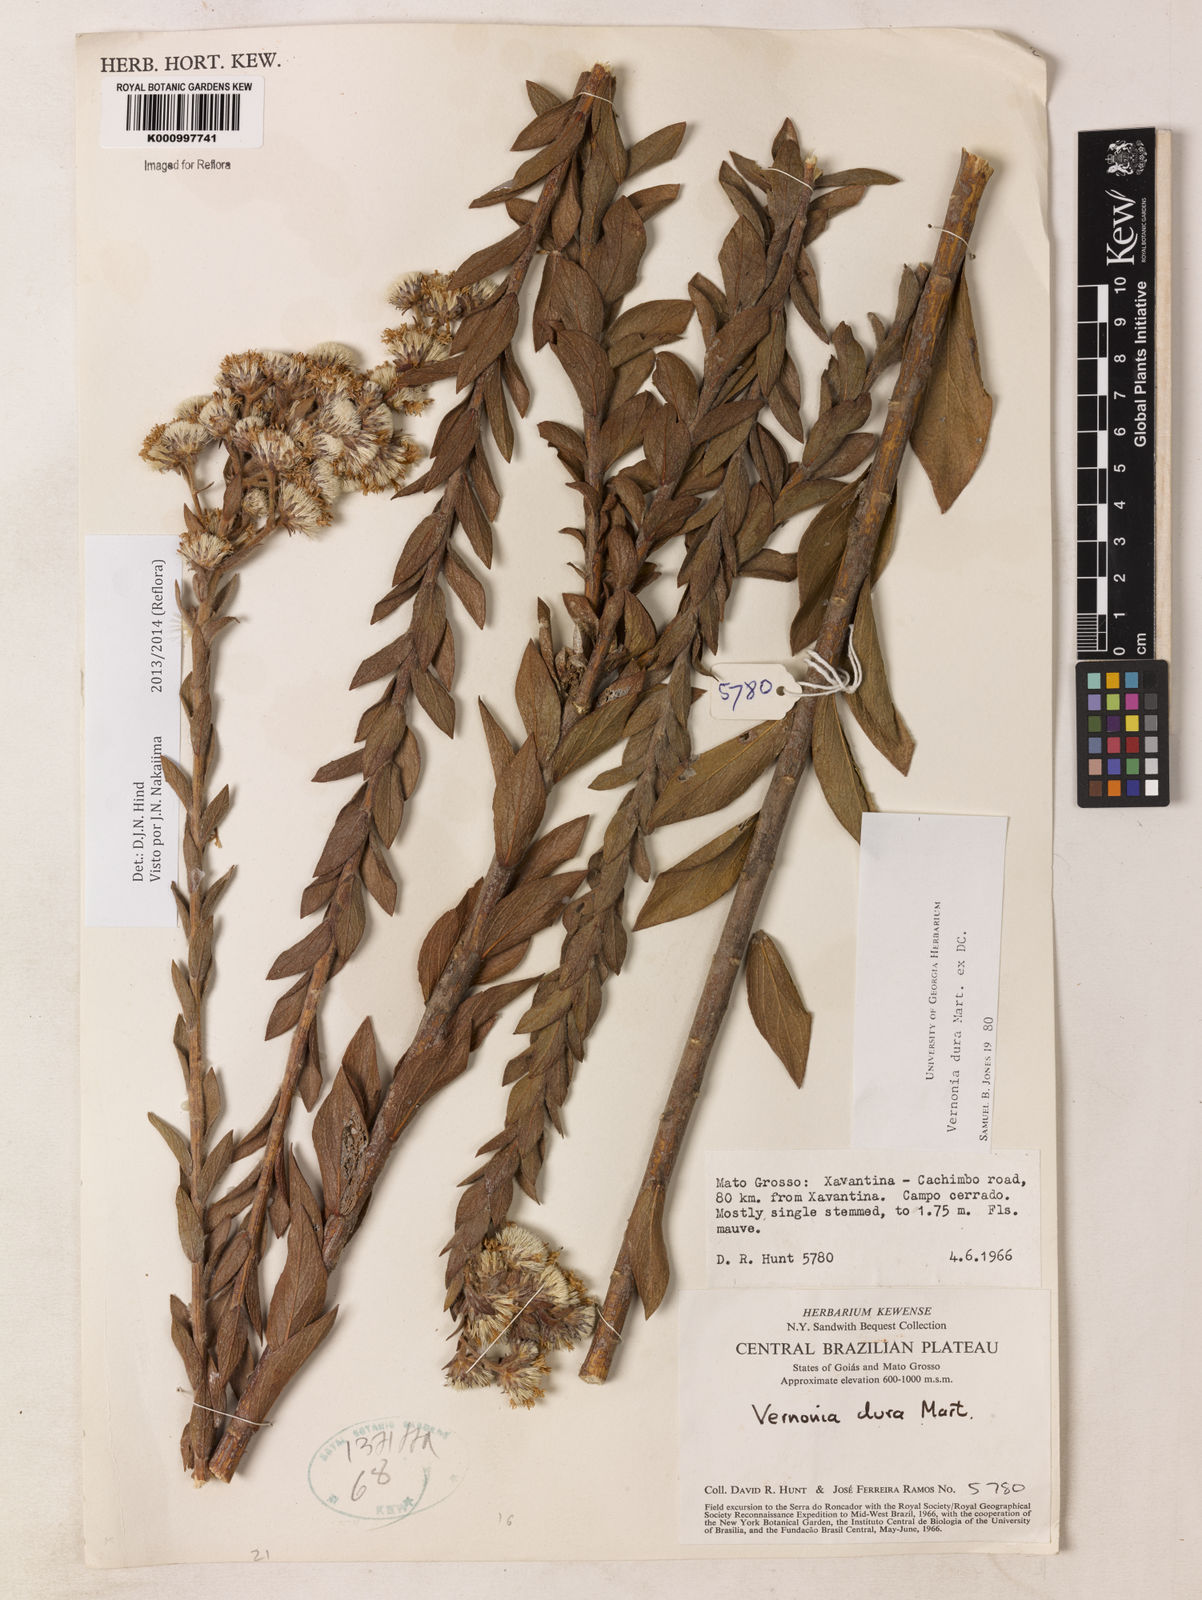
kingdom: Plantae
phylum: Tracheophyta
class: Magnoliopsida
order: Asterales
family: Asteraceae
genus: Lessingianthus
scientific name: Lessingianthus durus
